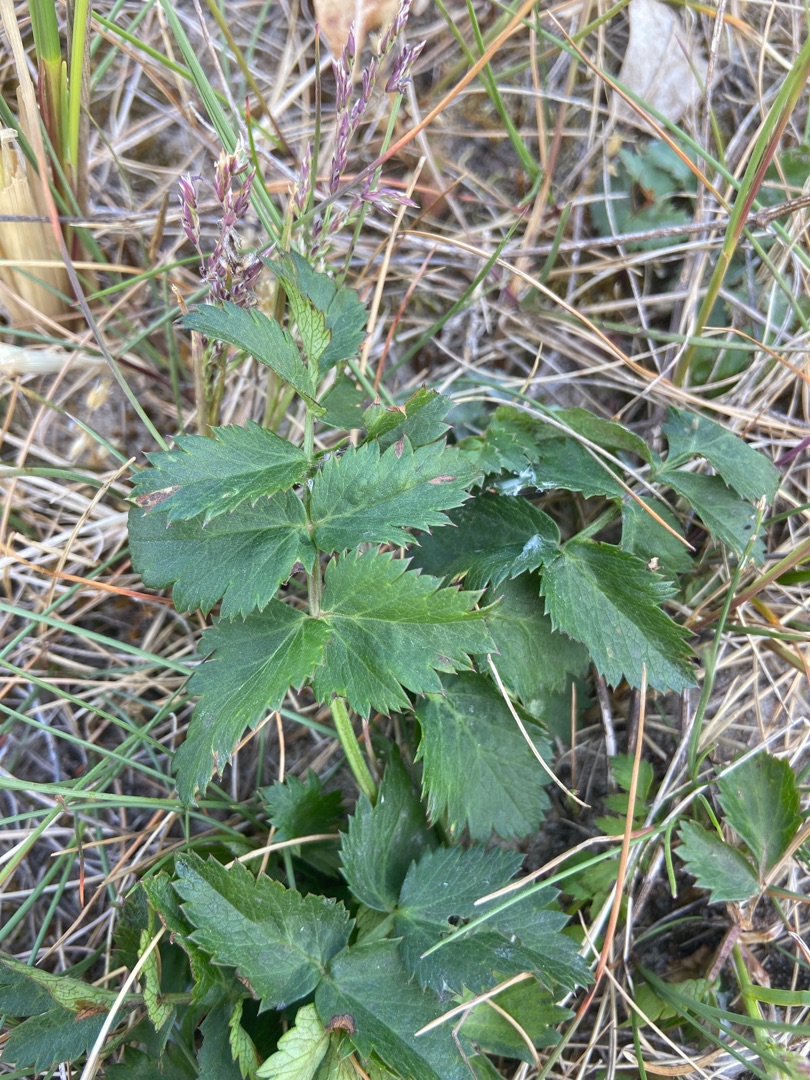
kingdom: Plantae
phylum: Tracheophyta
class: Magnoliopsida
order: Apiales
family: Apiaceae
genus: Pimpinella
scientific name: Pimpinella saxifraga
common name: Almindelig pimpinelle
